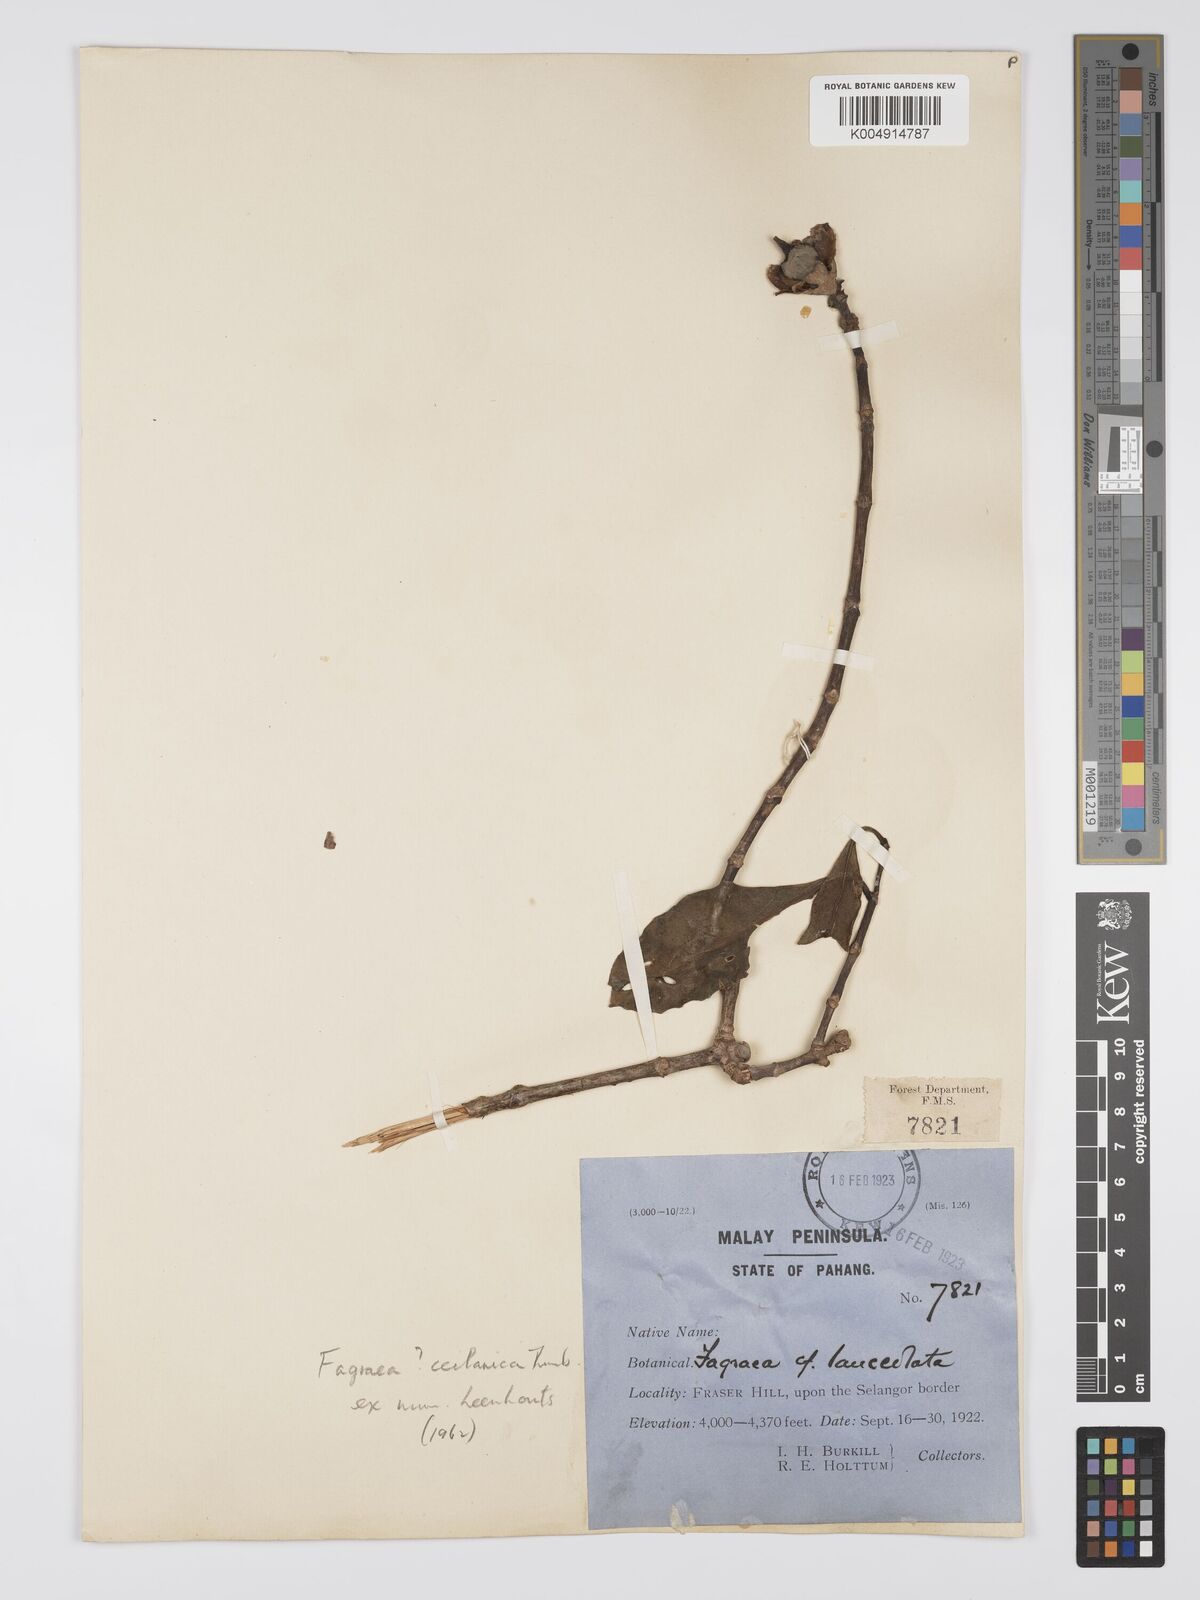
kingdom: Plantae
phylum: Tracheophyta
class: Magnoliopsida
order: Gentianales
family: Gentianaceae
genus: Fagraea
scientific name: Fagraea oblonga
